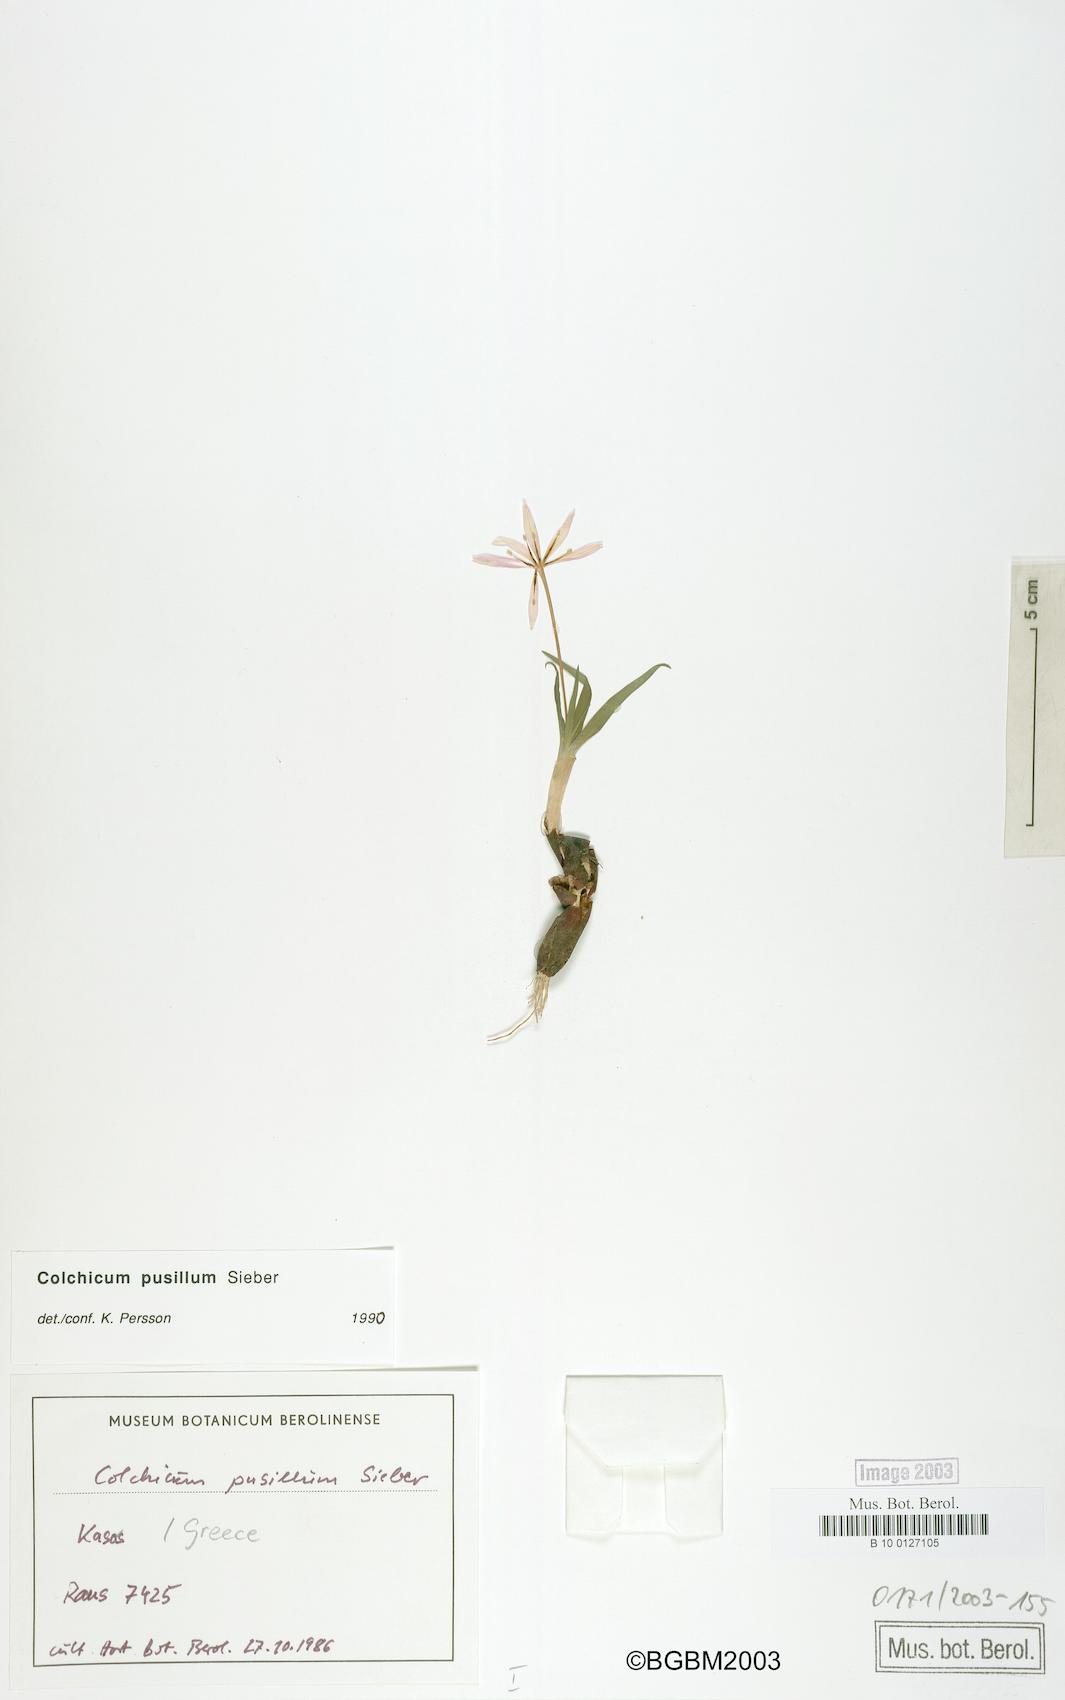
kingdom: Plantae
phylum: Tracheophyta
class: Liliopsida
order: Liliales
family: Colchicaceae
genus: Colchicum
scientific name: Colchicum pusillum
